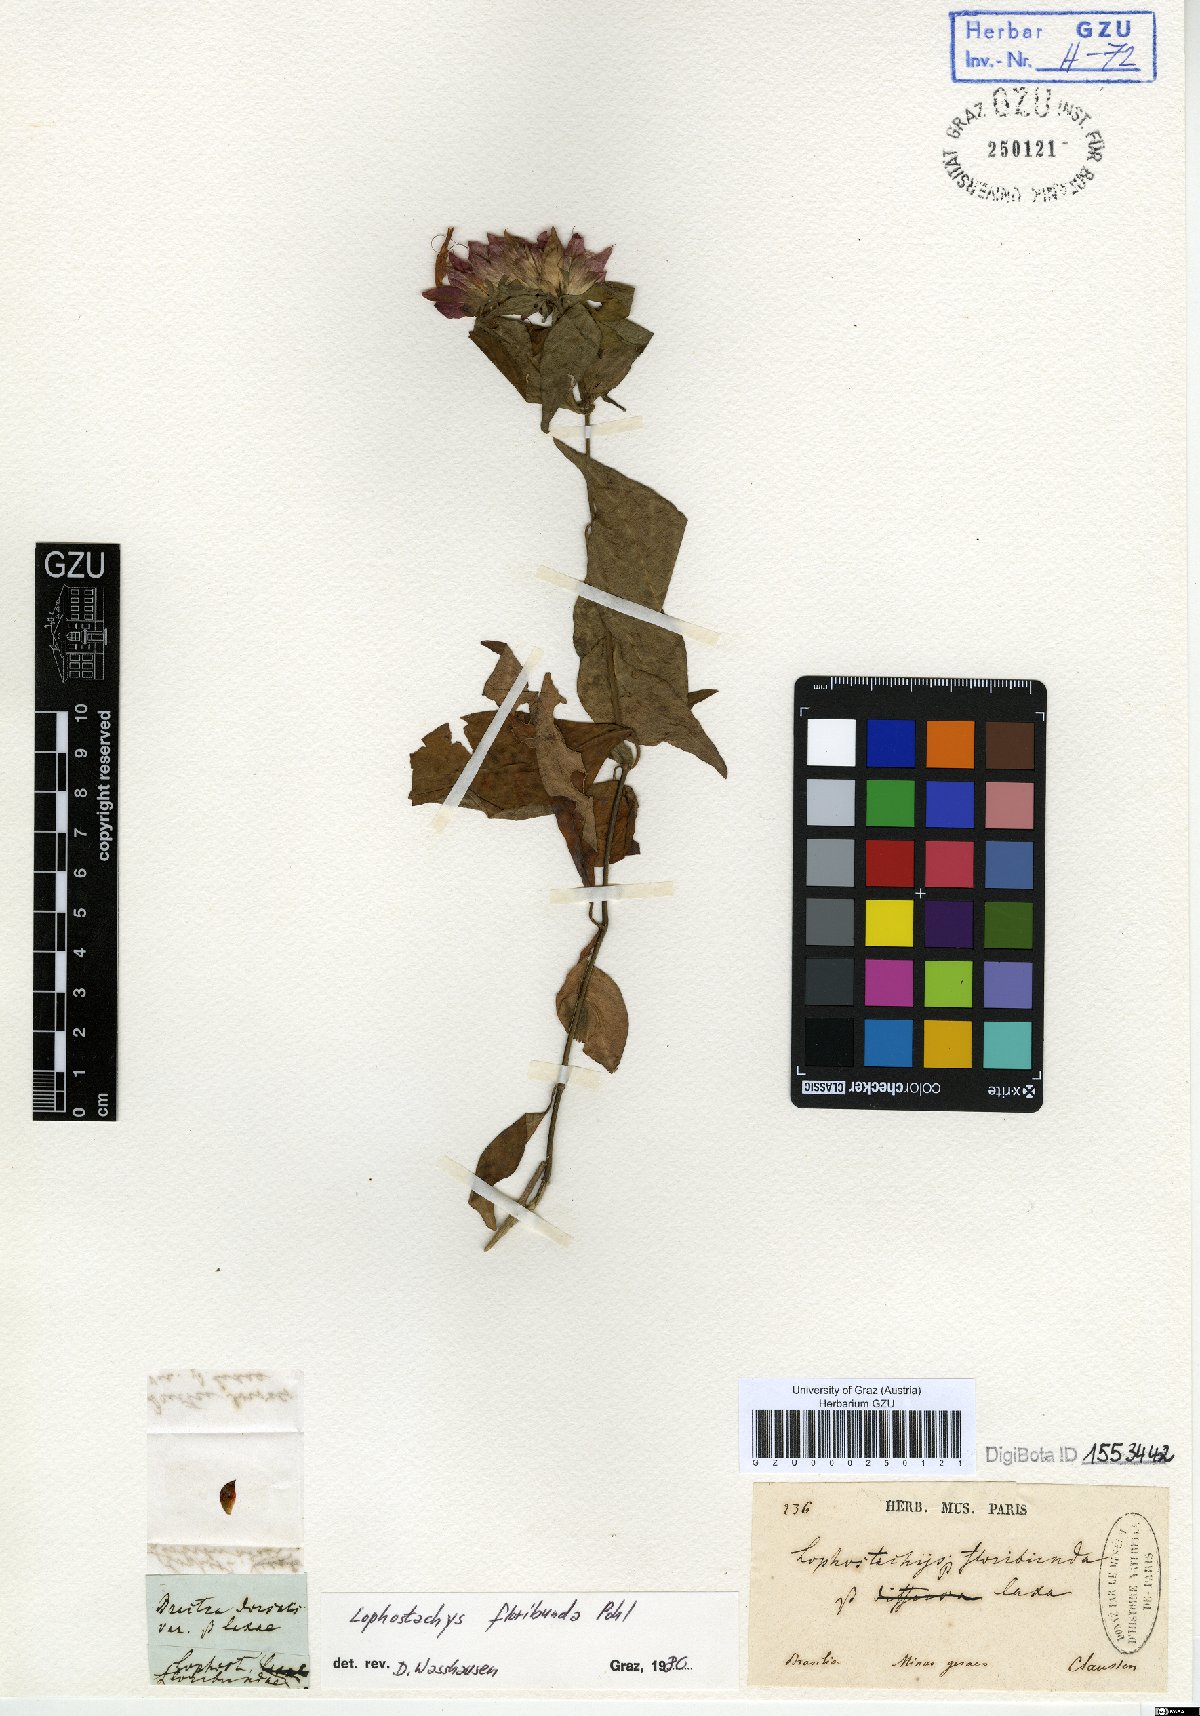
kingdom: Plantae
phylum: Tracheophyta
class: Magnoliopsida
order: Lamiales
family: Acanthaceae
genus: Lepidagathis
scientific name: Lepidagathis floribunda
